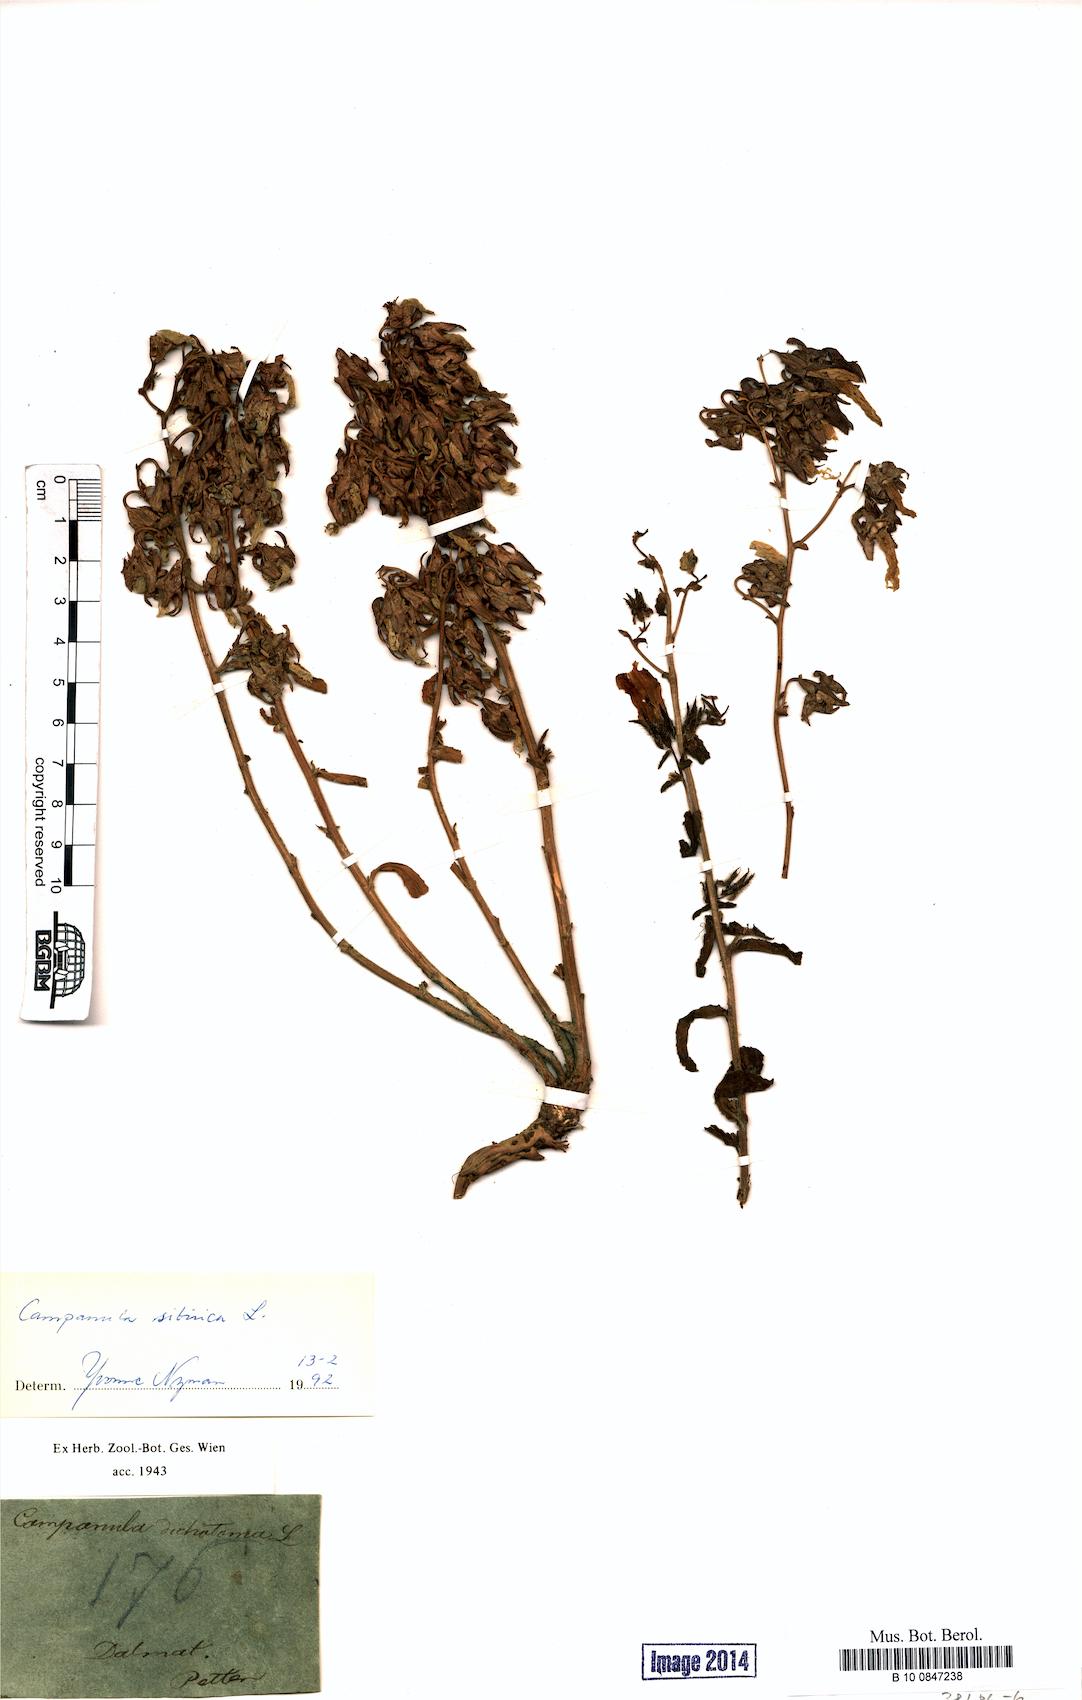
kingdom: Plantae
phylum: Tracheophyta
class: Magnoliopsida
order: Asterales
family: Campanulaceae
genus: Campanula
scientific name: Campanula sibirica
